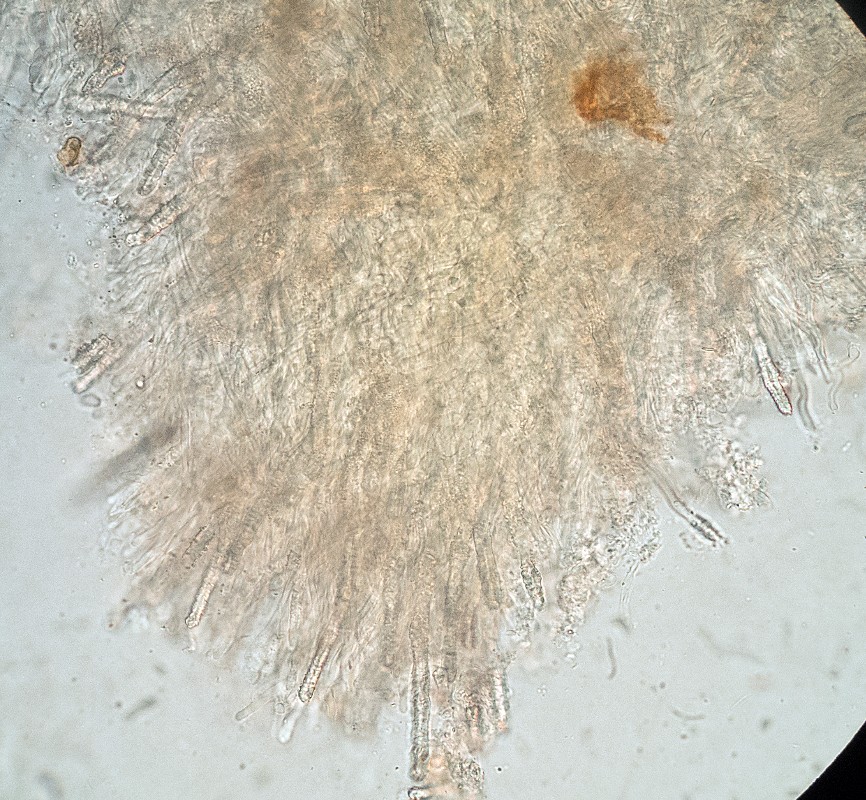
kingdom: Fungi
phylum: Basidiomycota
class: Agaricomycetes
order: Polyporales
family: Irpicaceae
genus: Irpex
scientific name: Irpex litschaueri
